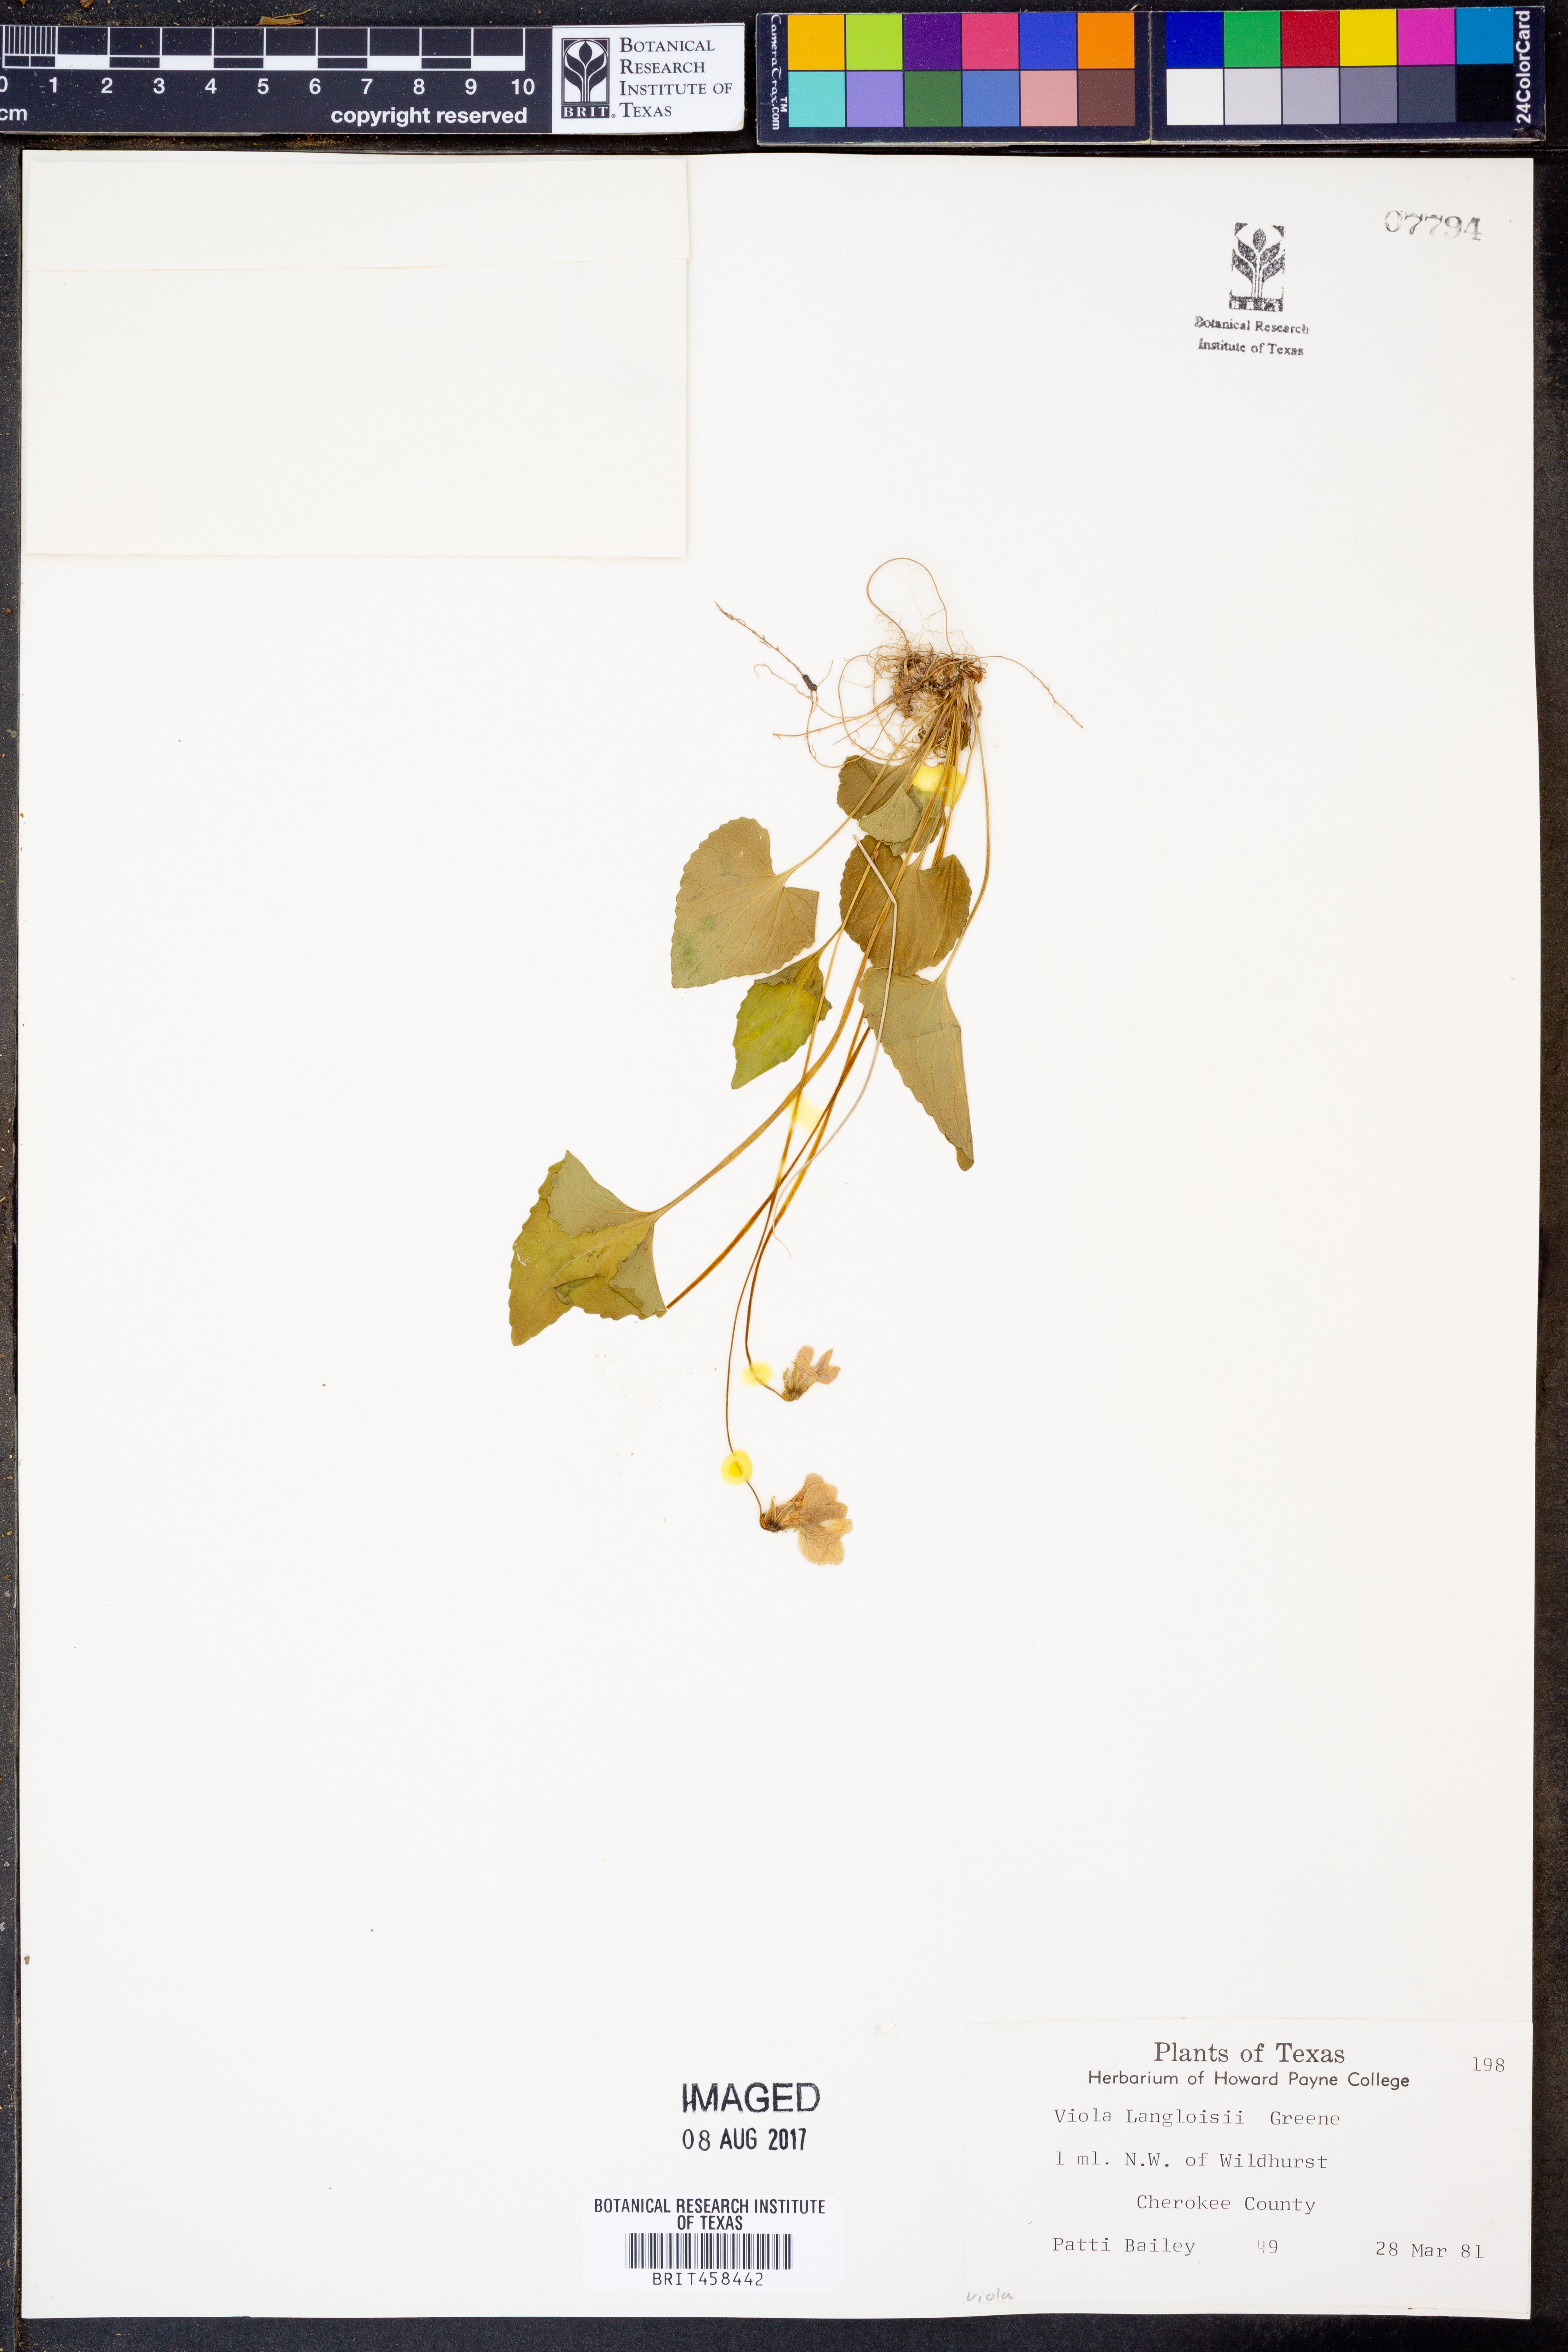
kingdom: Plantae
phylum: Tracheophyta
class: Magnoliopsida
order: Malpighiales
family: Violaceae
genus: Viola
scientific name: Viola langloisii
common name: Langlois' violet
